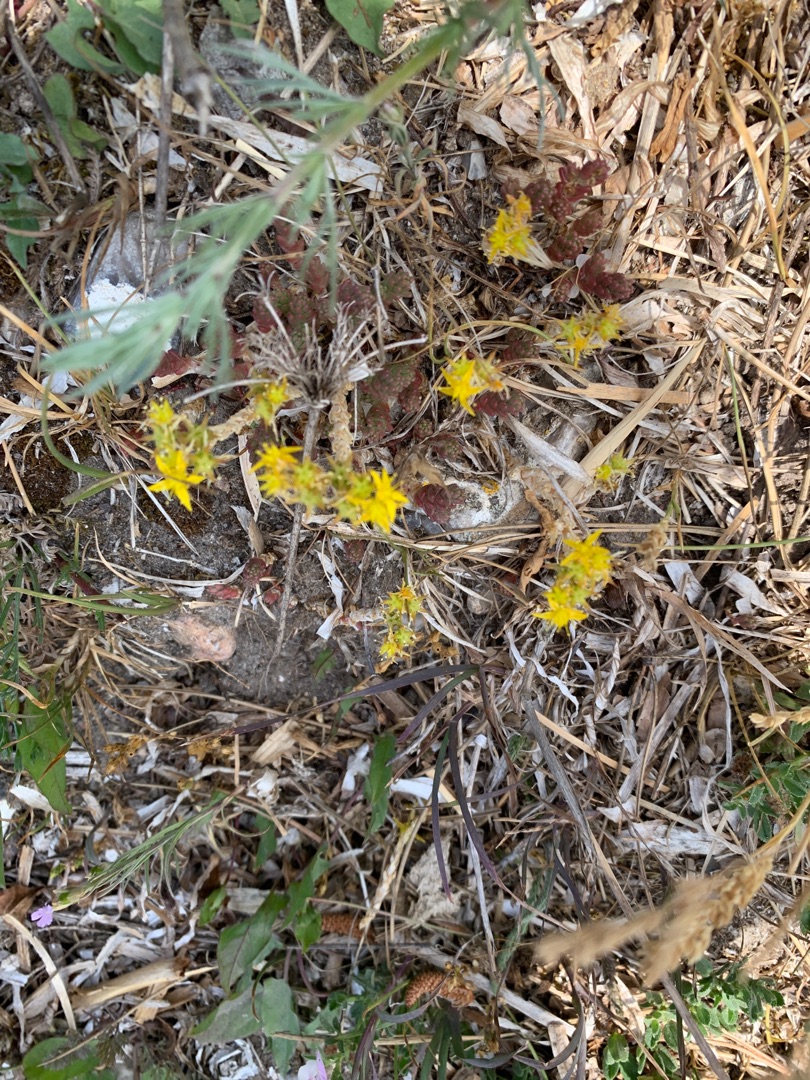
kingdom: Plantae
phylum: Tracheophyta
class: Magnoliopsida
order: Saxifragales
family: Crassulaceae
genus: Sedum
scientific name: Sedum acre
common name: Bidende stenurt
